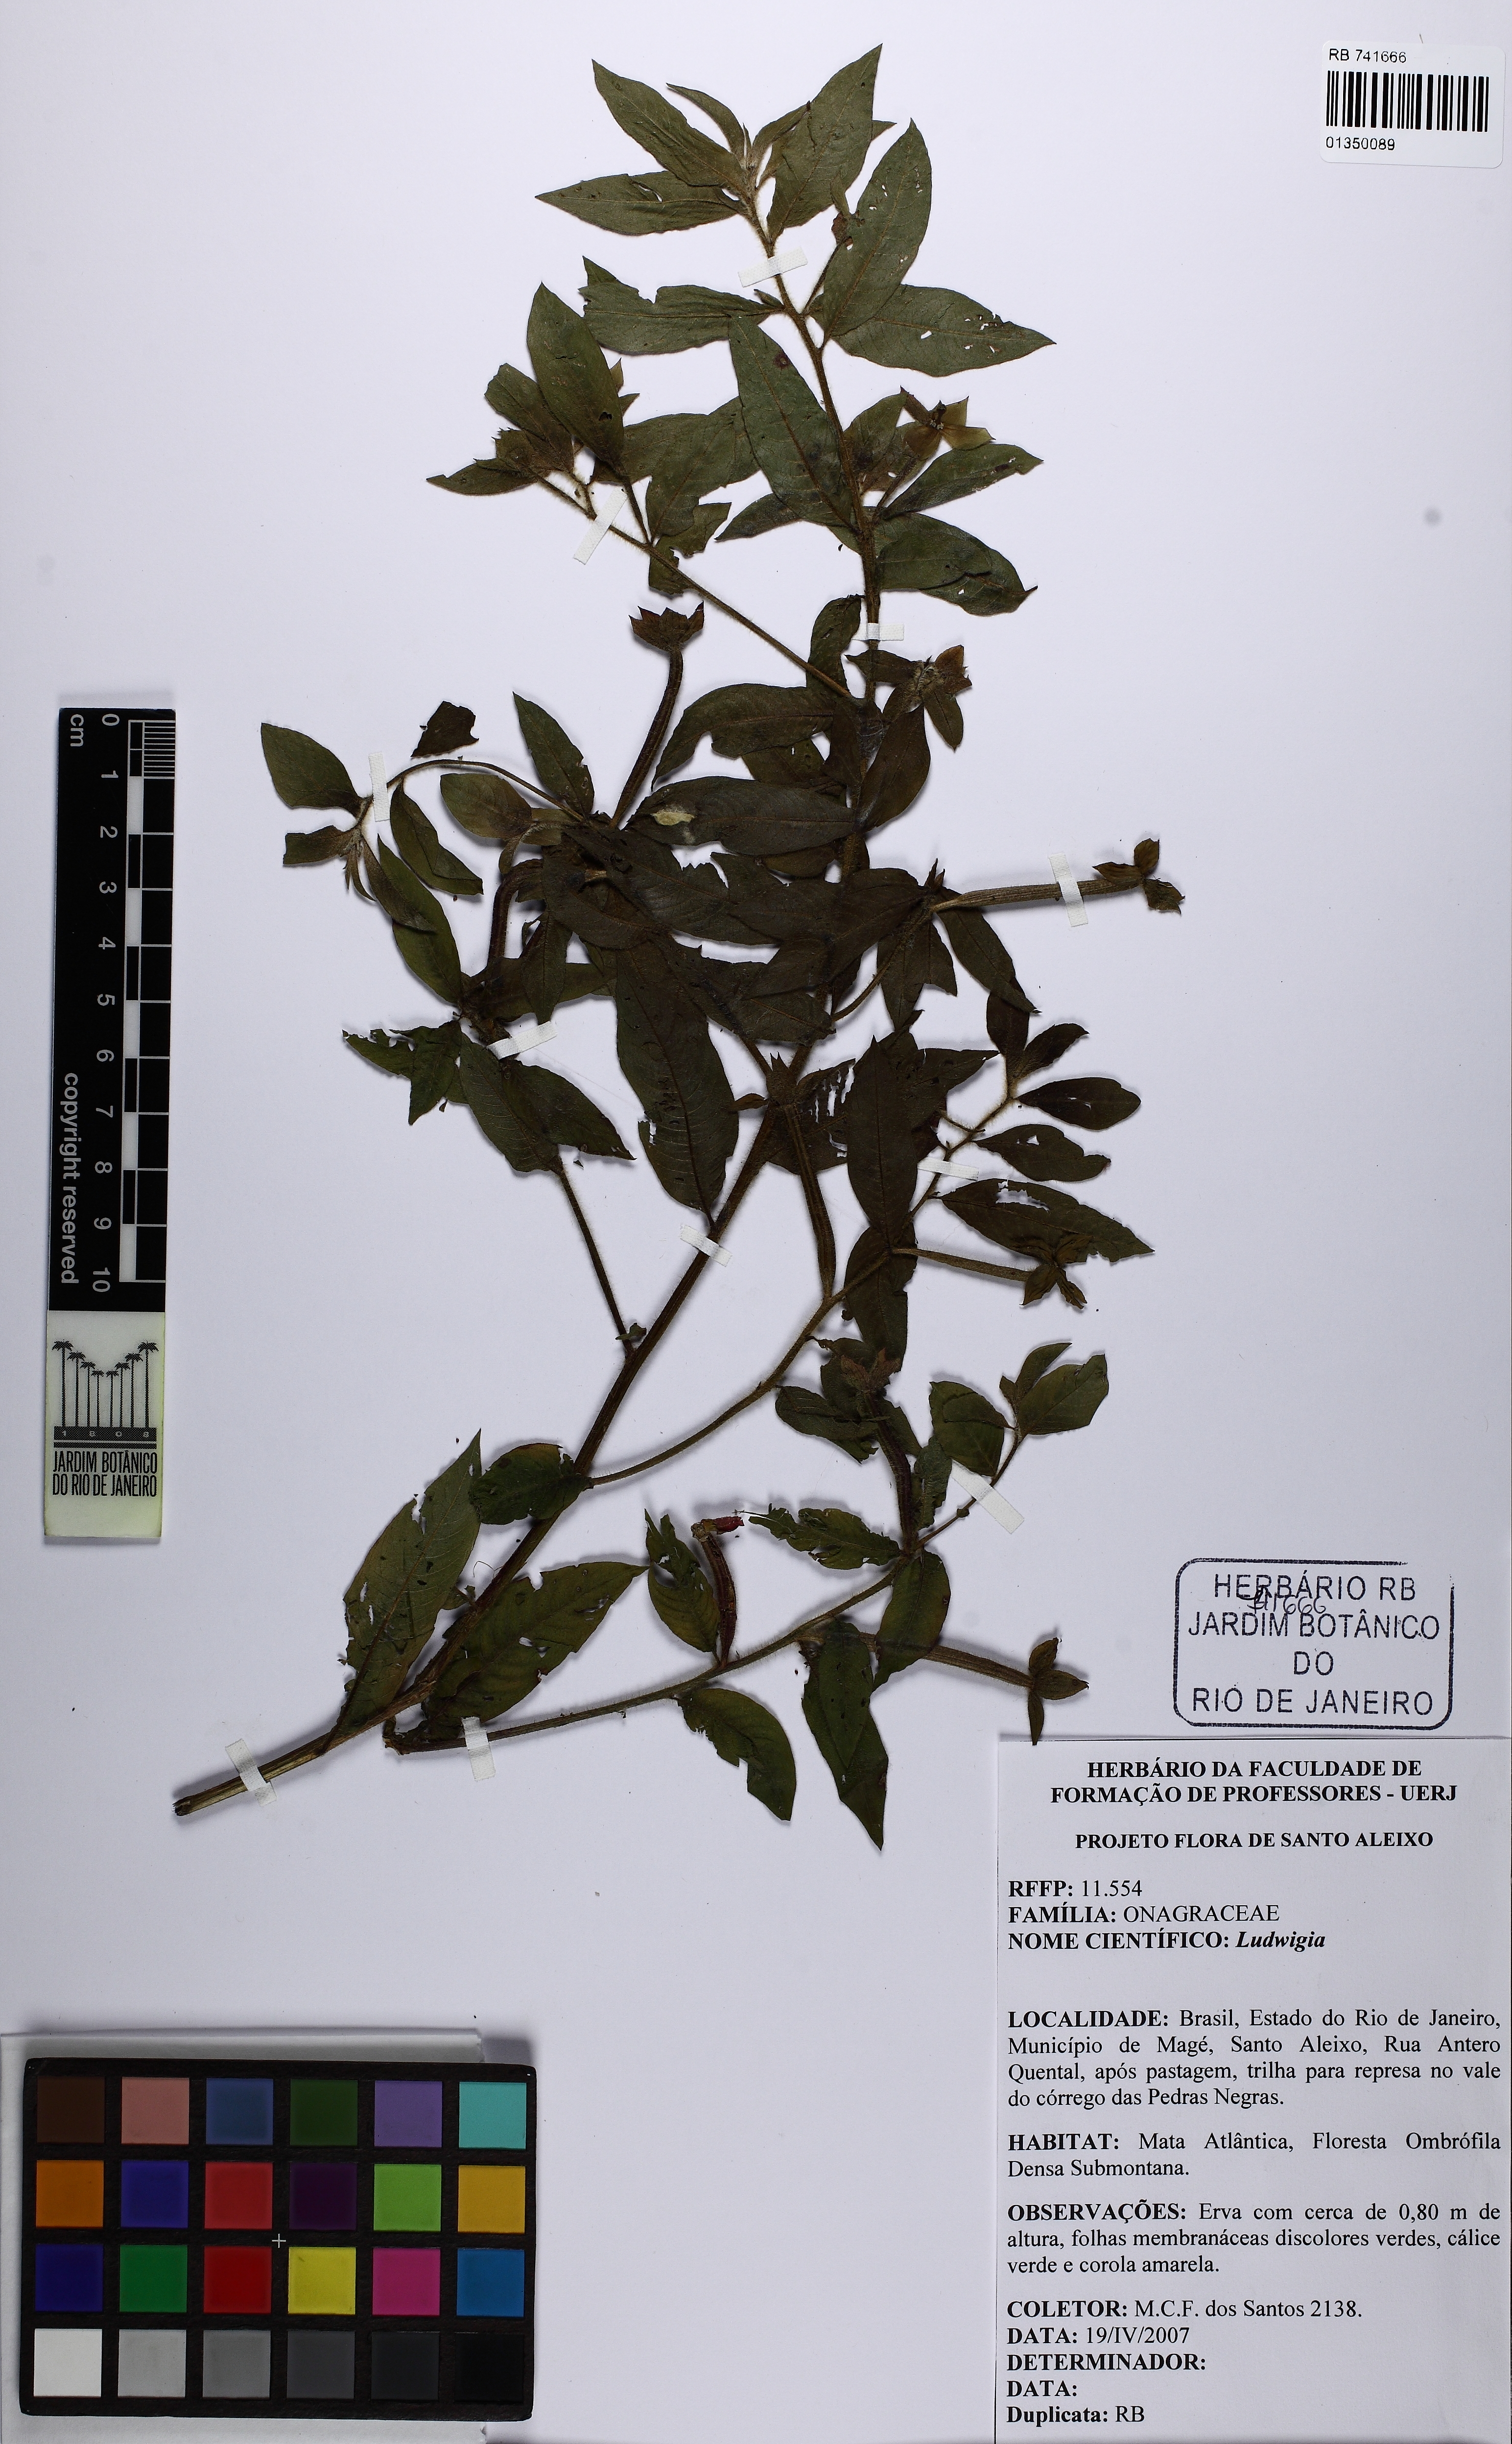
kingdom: Plantae
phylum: Tracheophyta
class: Magnoliopsida
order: Myrtales
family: Onagraceae
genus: Ludwigia
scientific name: Ludwigia
